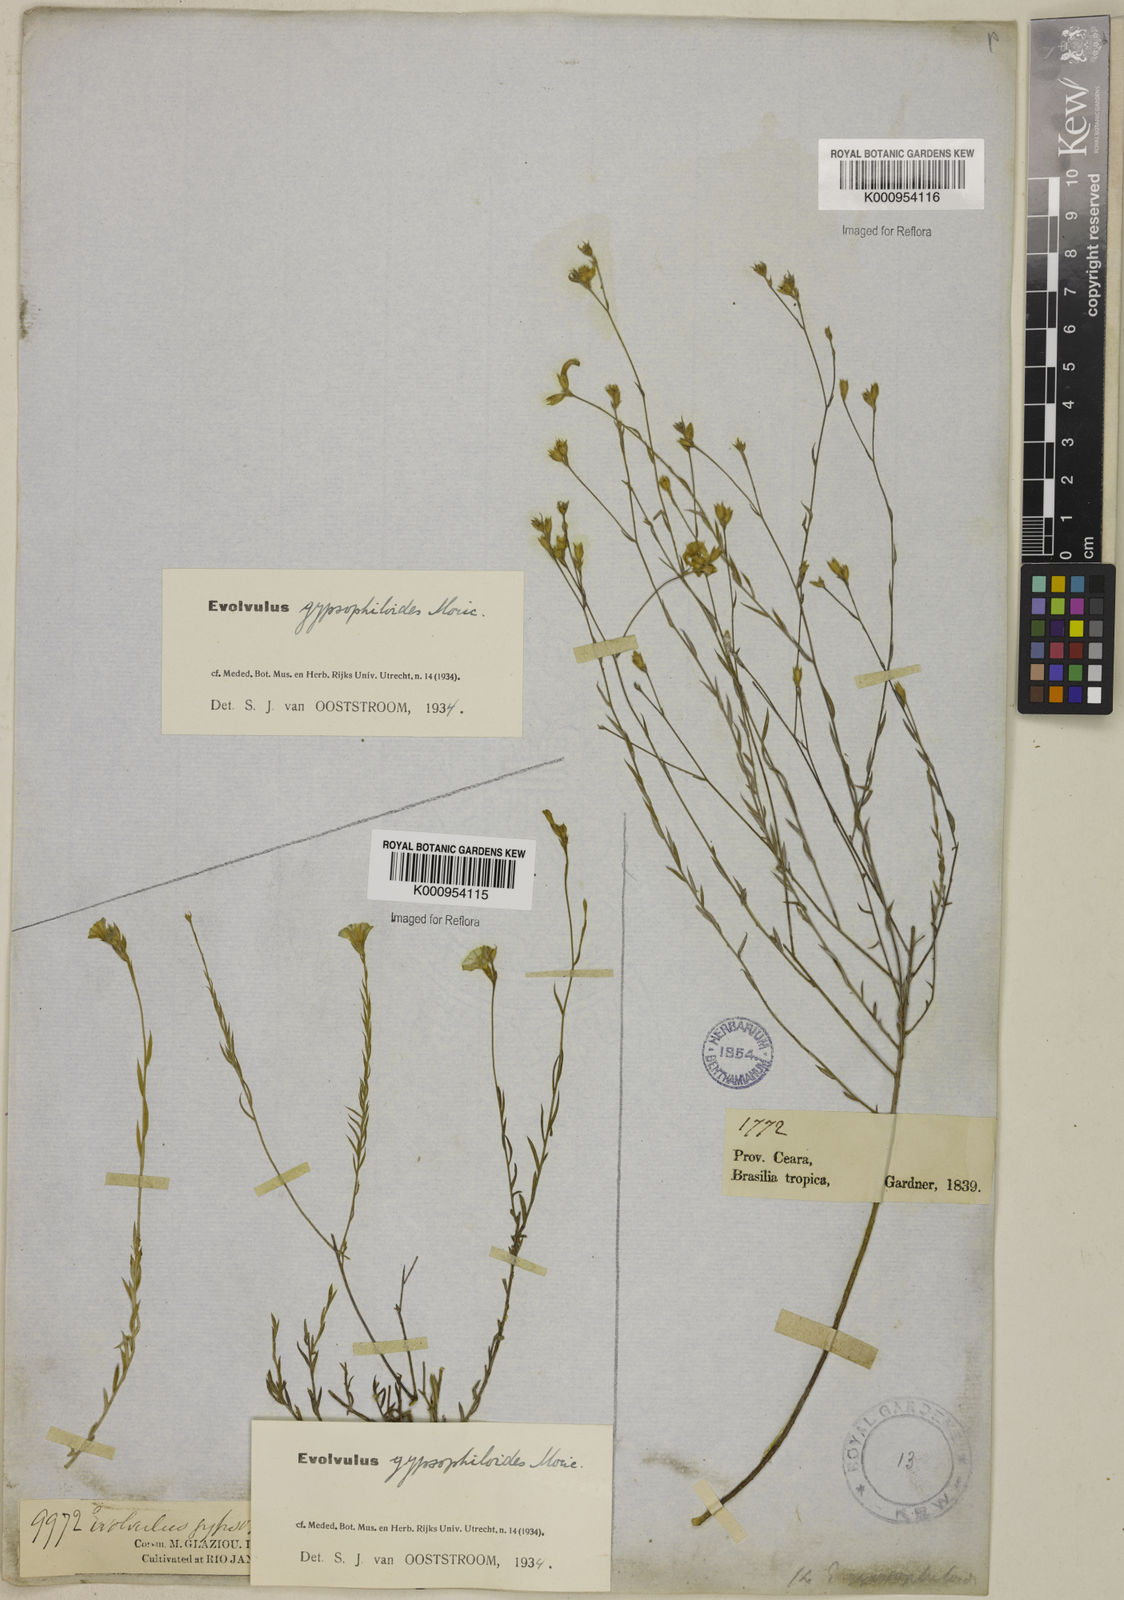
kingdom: Plantae
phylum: Tracheophyta
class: Magnoliopsida
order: Solanales
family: Convolvulaceae
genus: Evolvulus
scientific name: Evolvulus gypsophiloides
